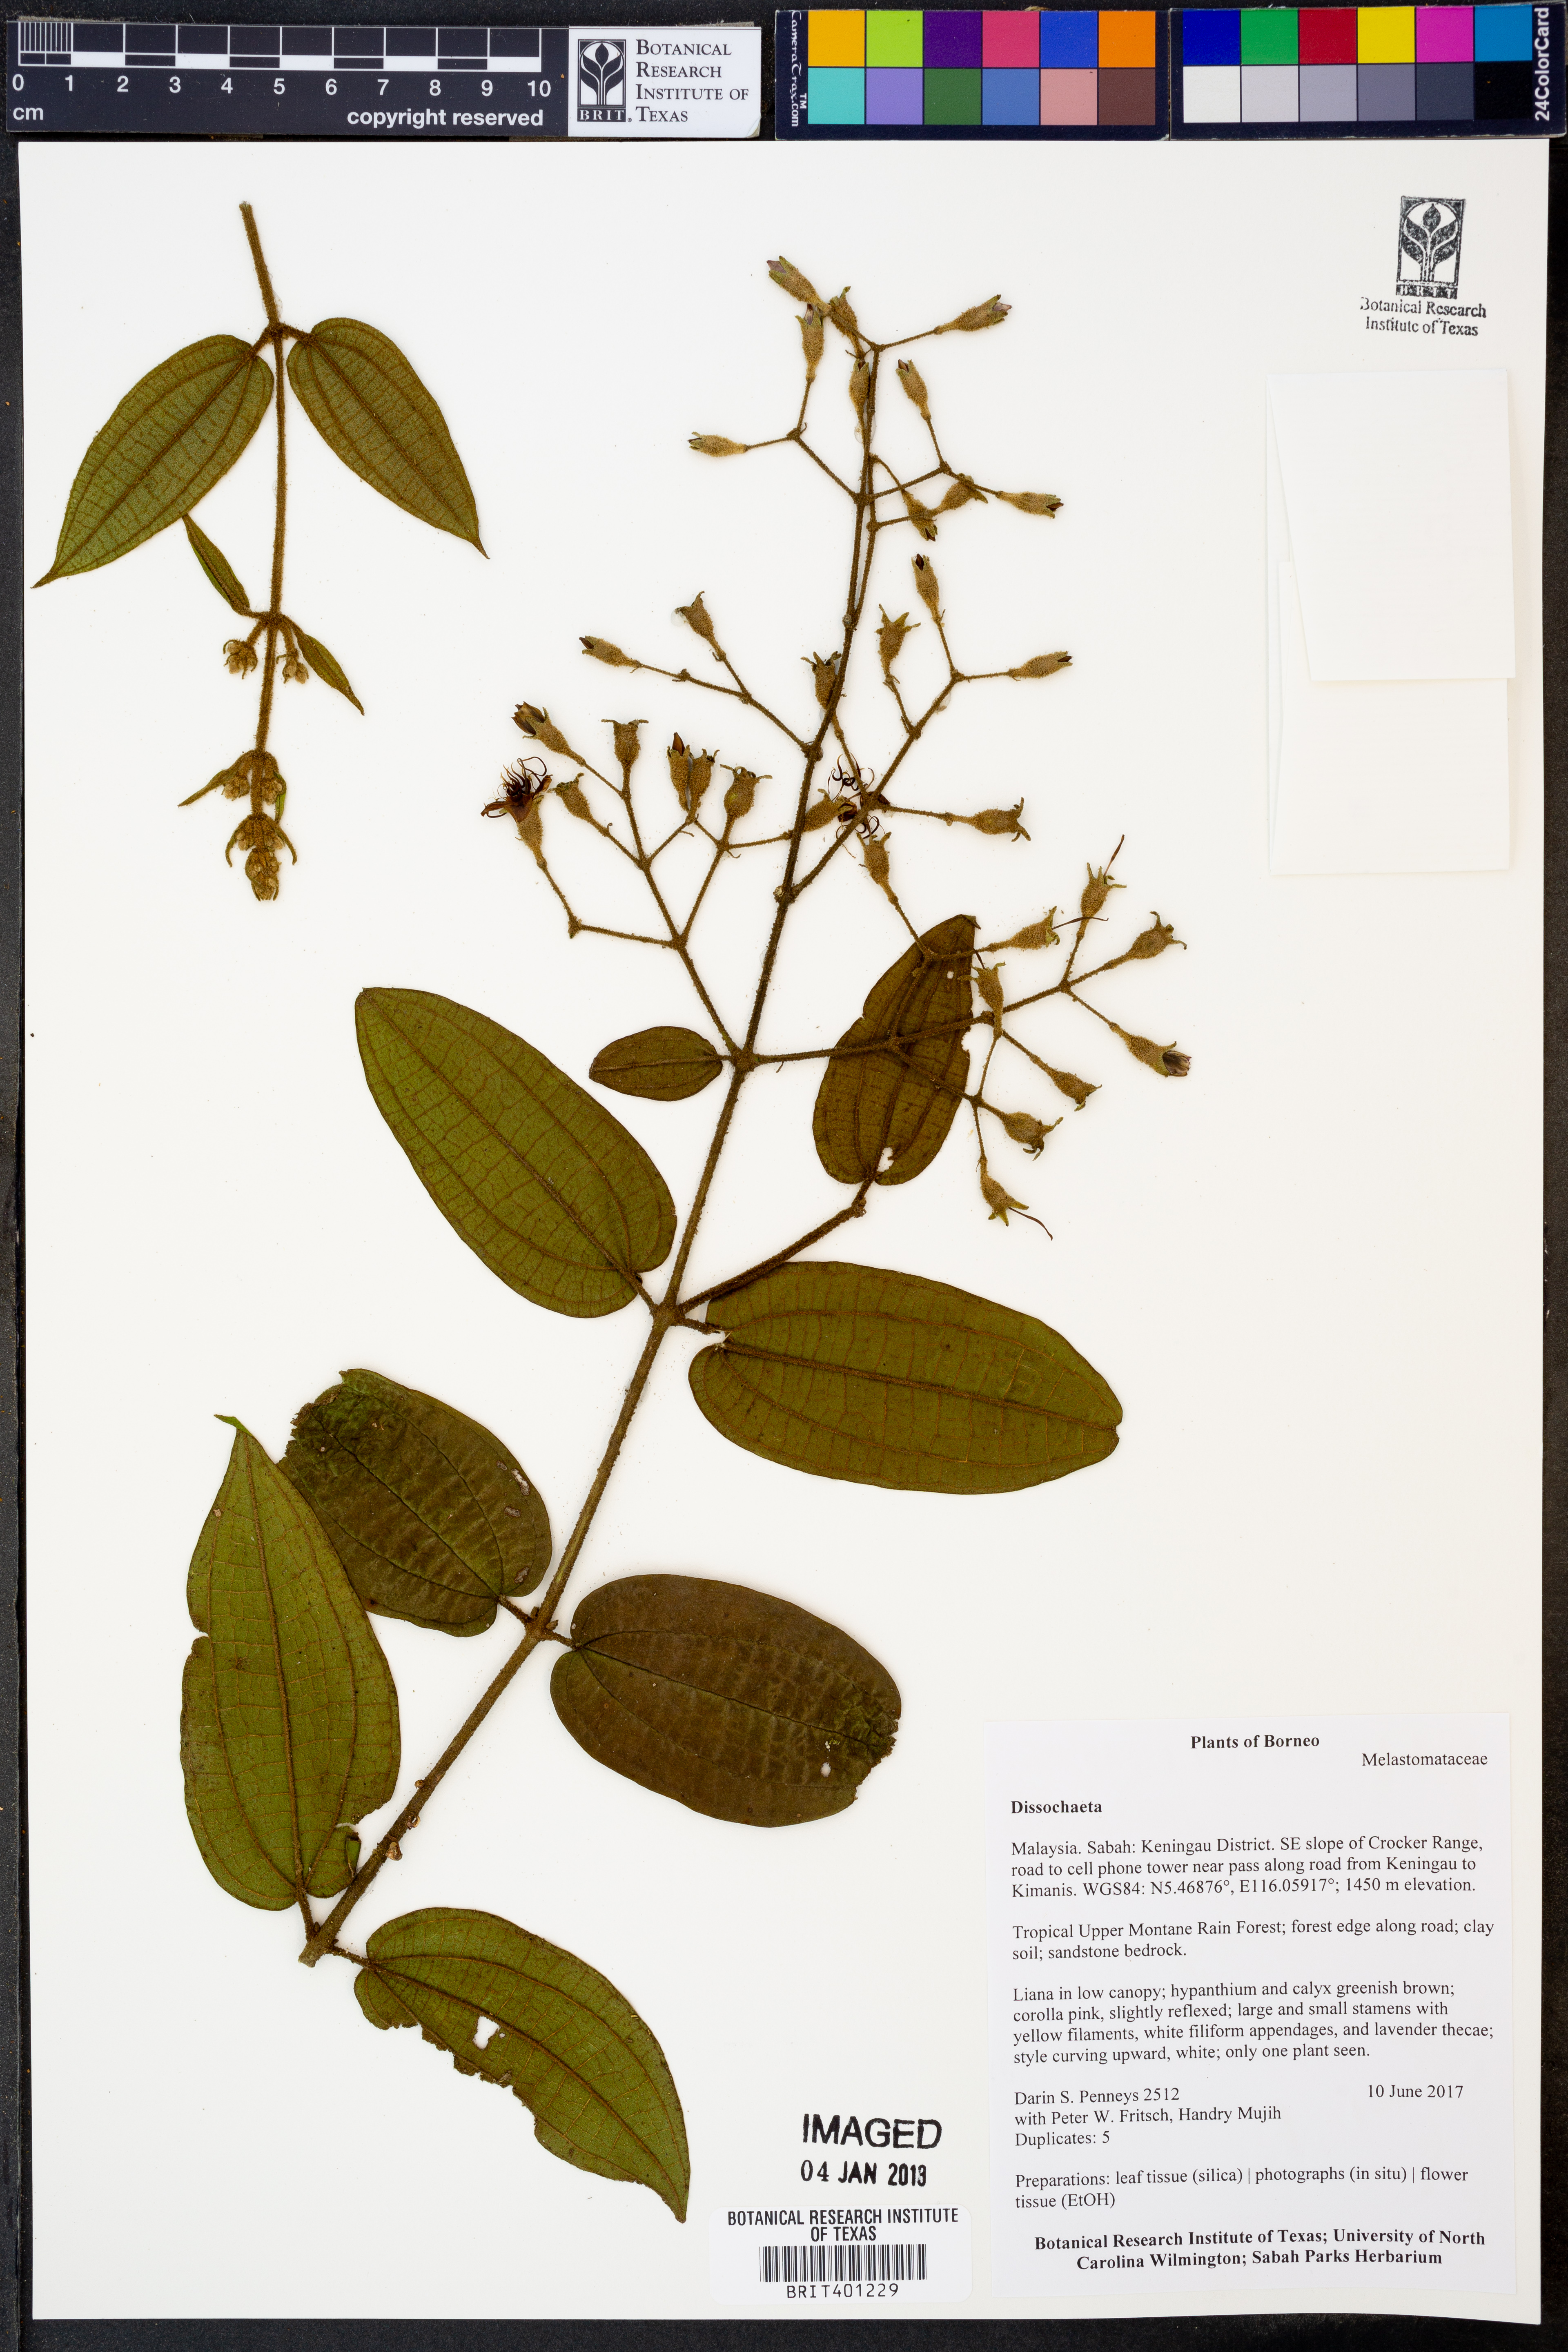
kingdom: Plantae
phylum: Tracheophyta
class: Magnoliopsida
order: Myrtales
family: Melastomataceae
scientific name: Melastomataceae
